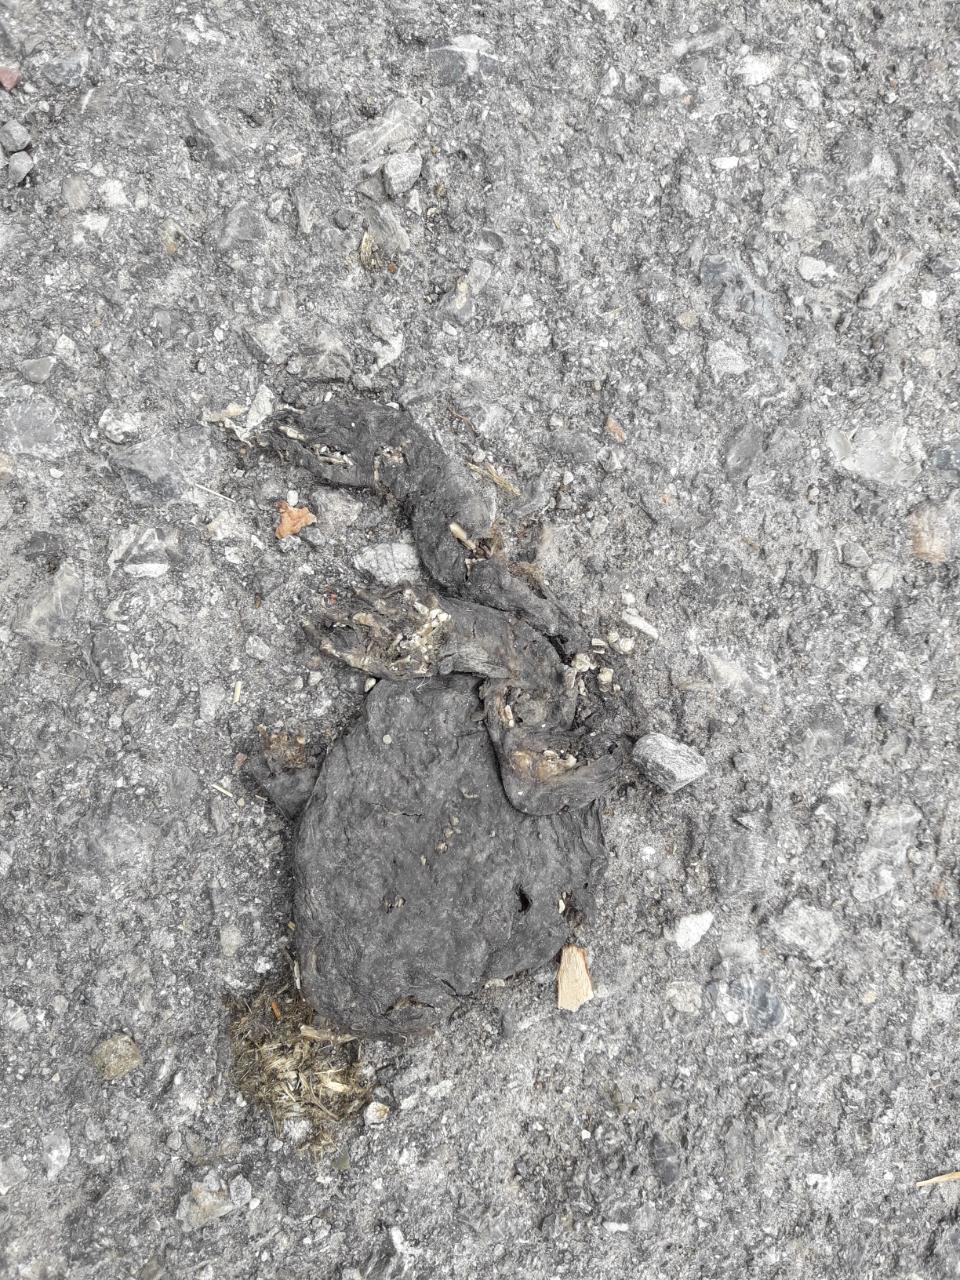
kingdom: Animalia
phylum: Chordata
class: Amphibia
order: Anura
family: Bufonidae
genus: Bufo
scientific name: Bufo bufo
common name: Common toad
